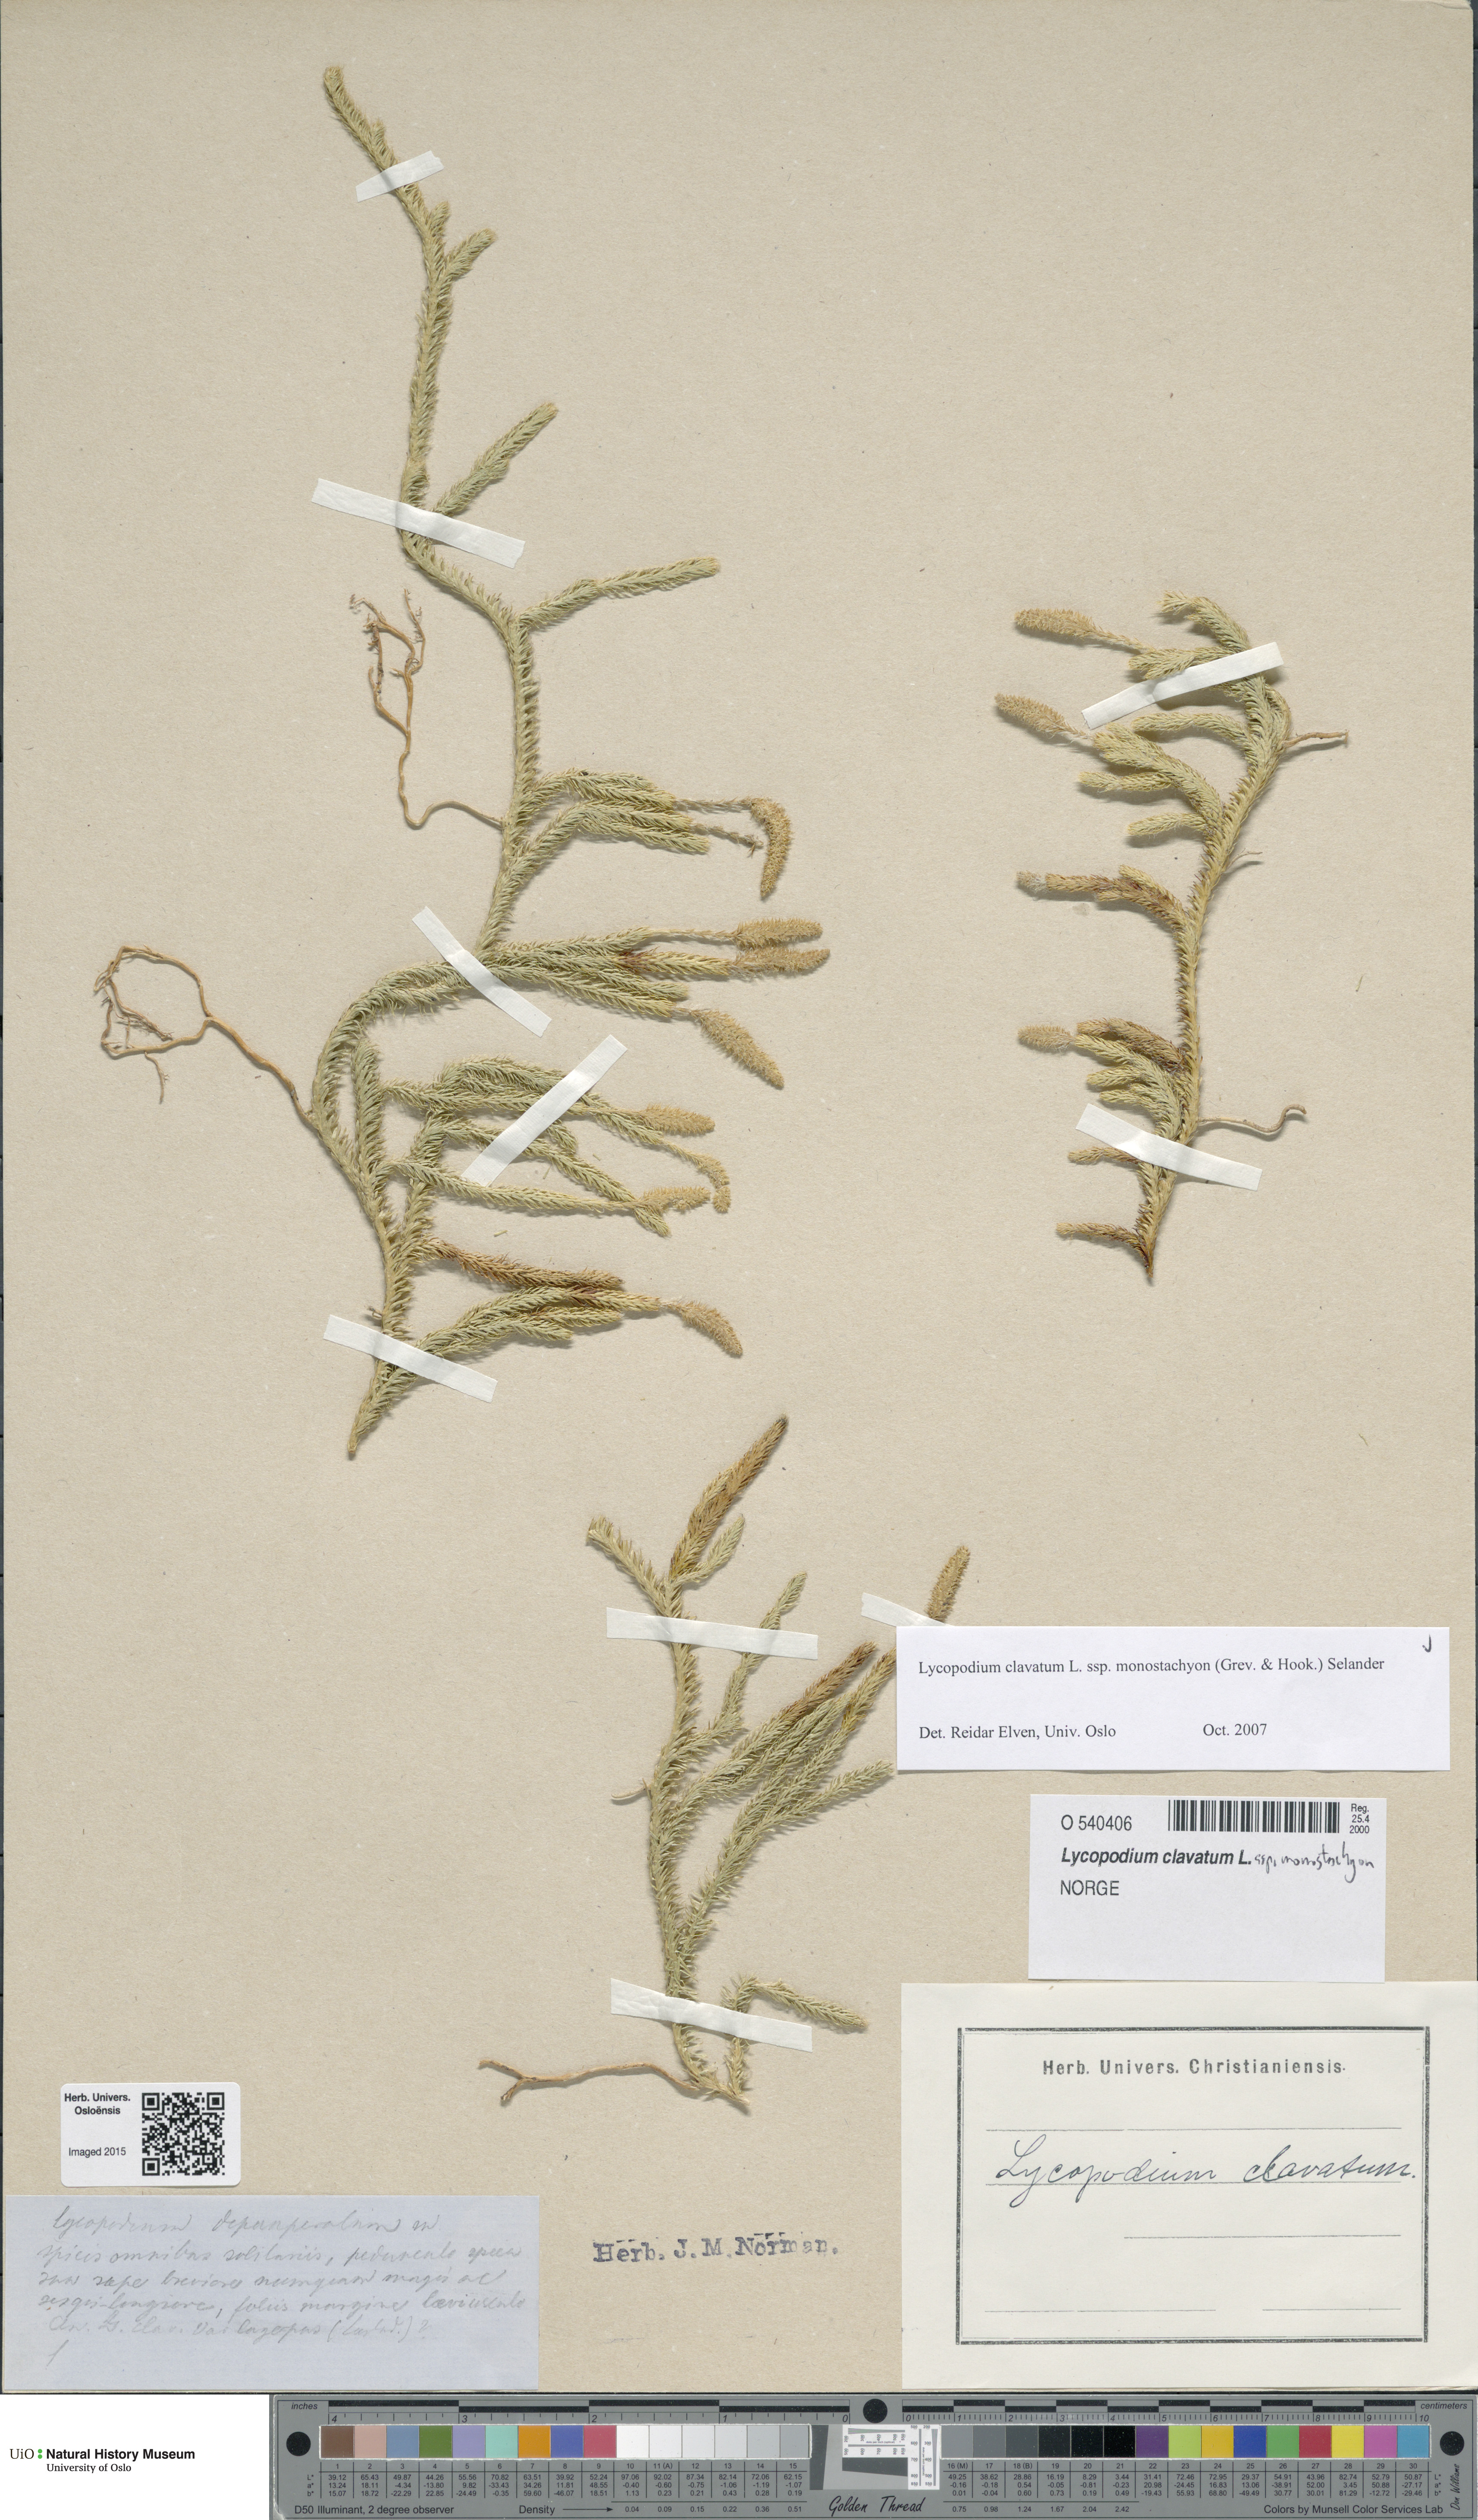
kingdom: Plantae
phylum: Tracheophyta
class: Lycopodiopsida
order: Lycopodiales
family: Lycopodiaceae
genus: Lycopodium
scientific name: Lycopodium lagopus
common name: One-cone clubmoss
